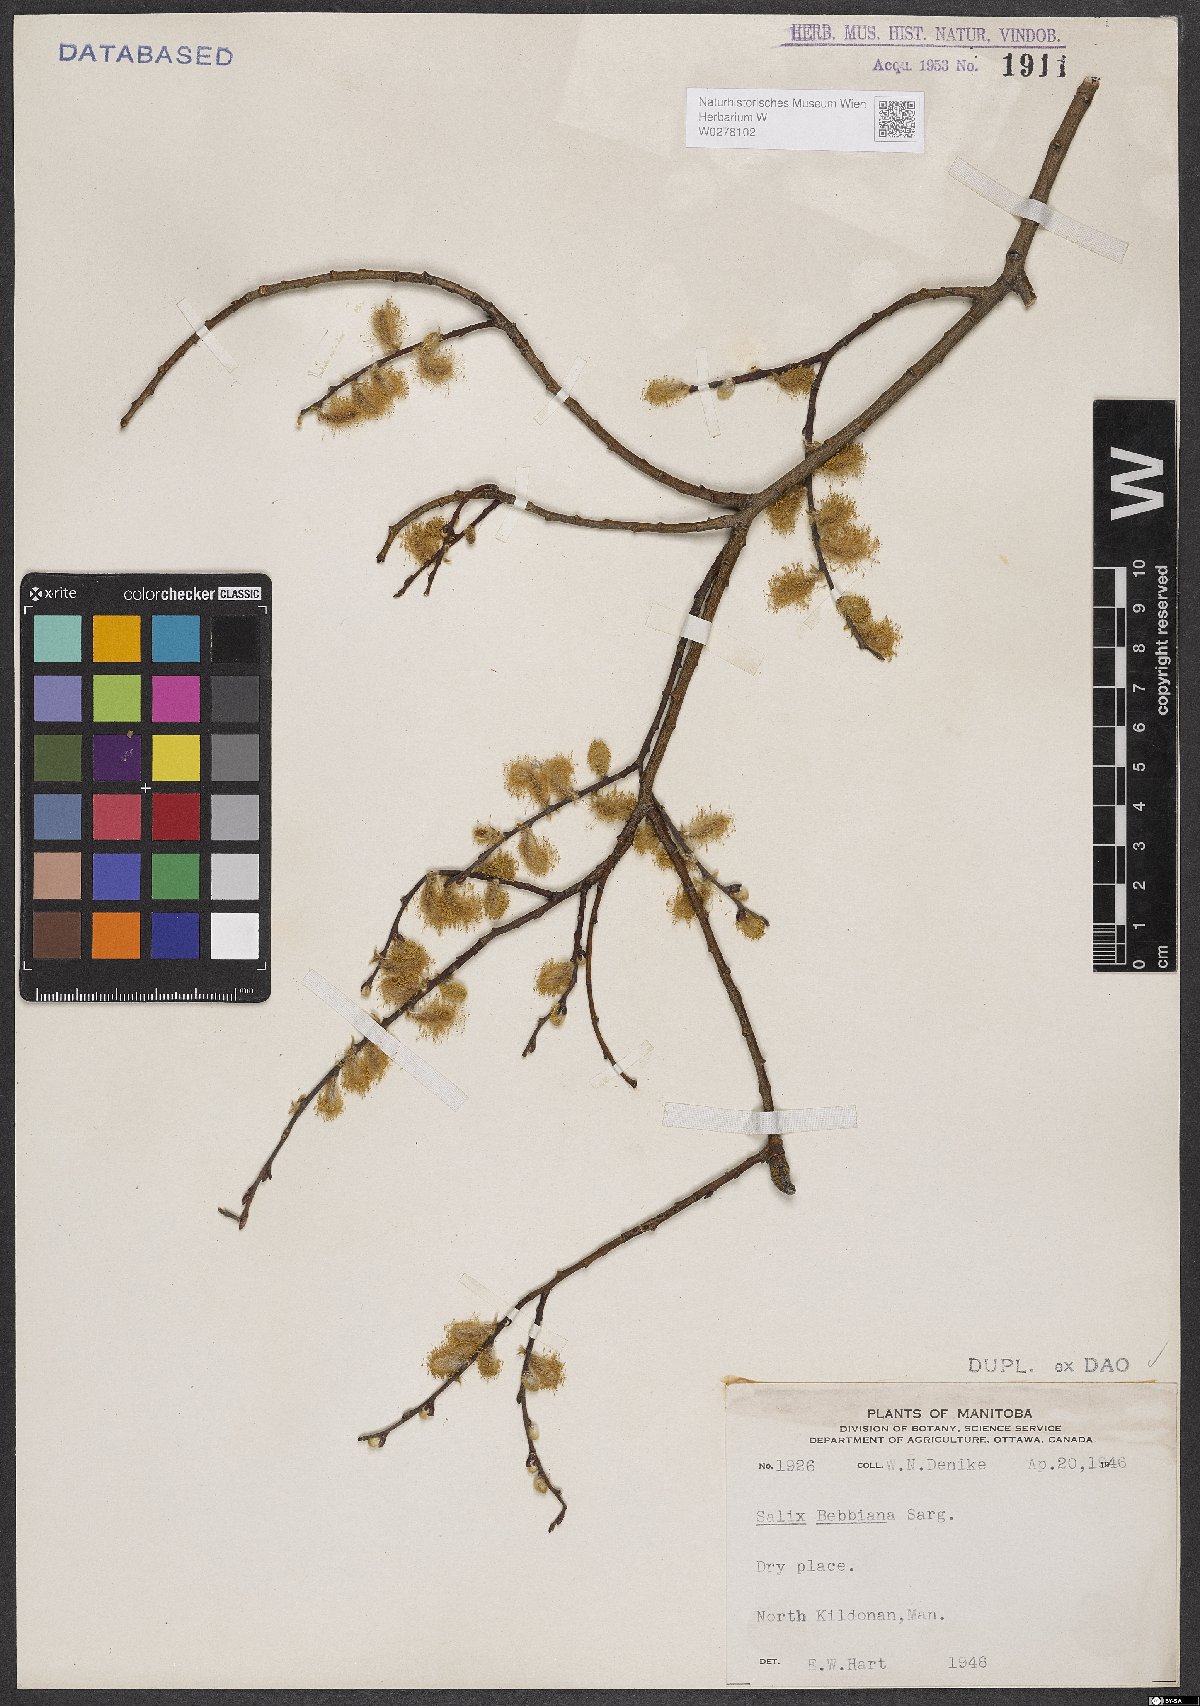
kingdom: Plantae
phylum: Tracheophyta
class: Magnoliopsida
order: Malpighiales
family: Salicaceae
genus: Salix
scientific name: Salix bebbiana
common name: Bebb's willow
